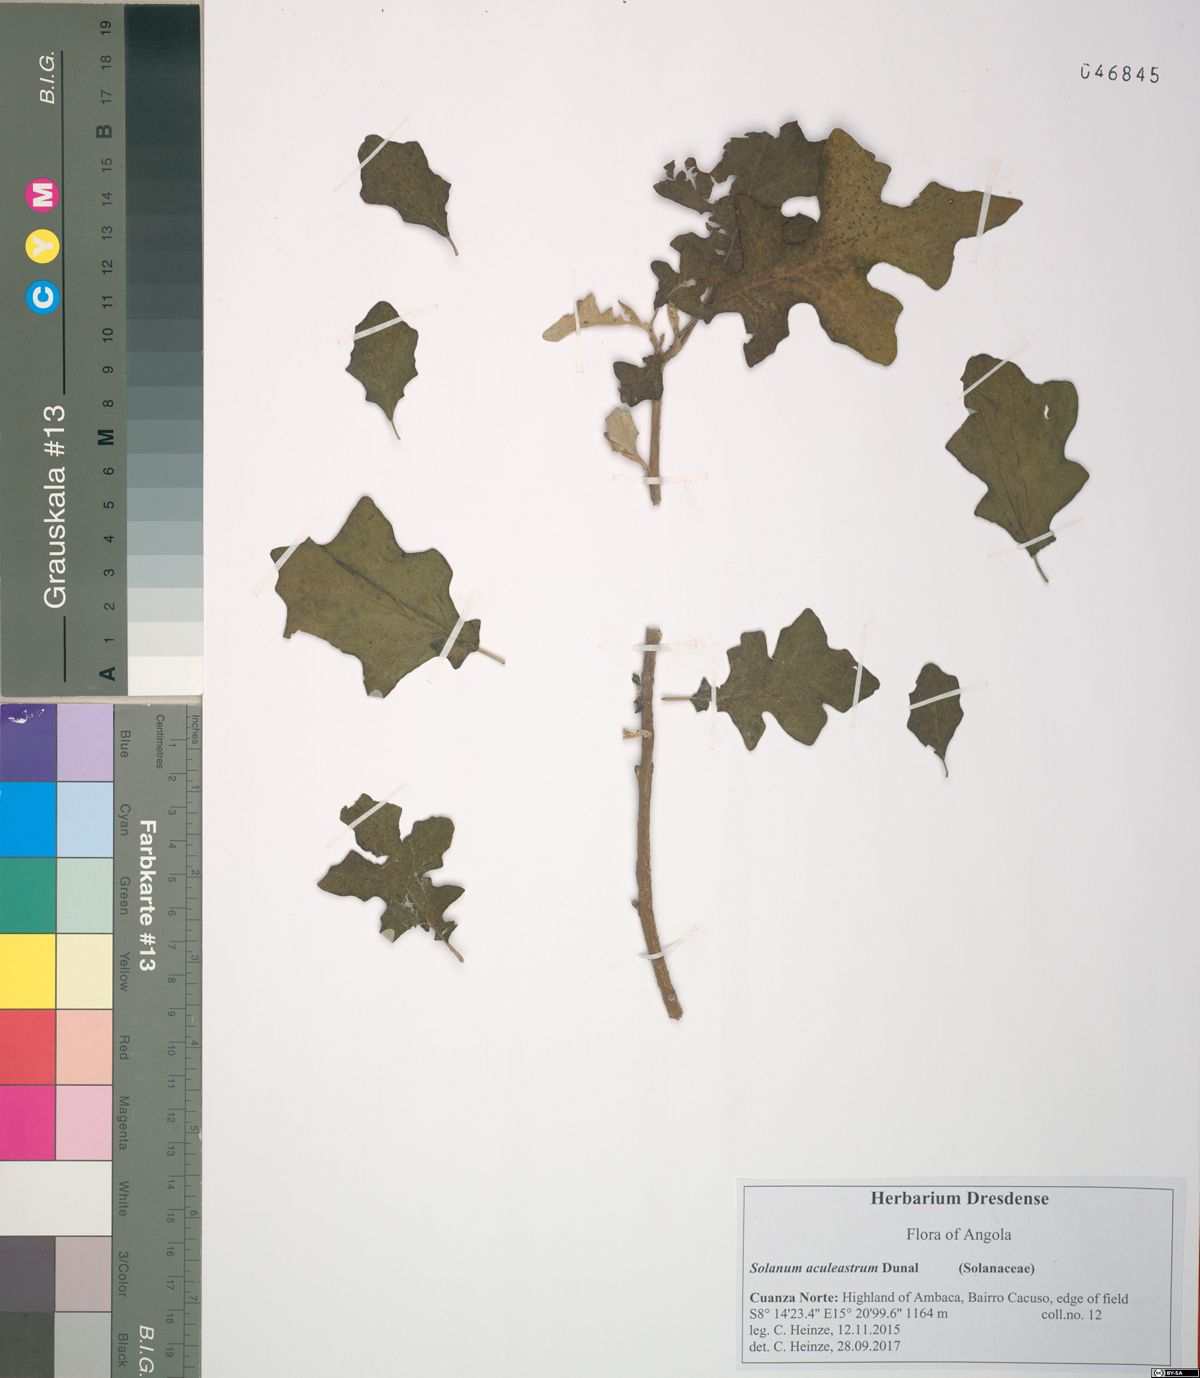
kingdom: Plantae
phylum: Tracheophyta
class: Magnoliopsida
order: Solanales
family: Solanaceae
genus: Solanum
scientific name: Solanum aculeastrum
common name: Goat bitter-apple
